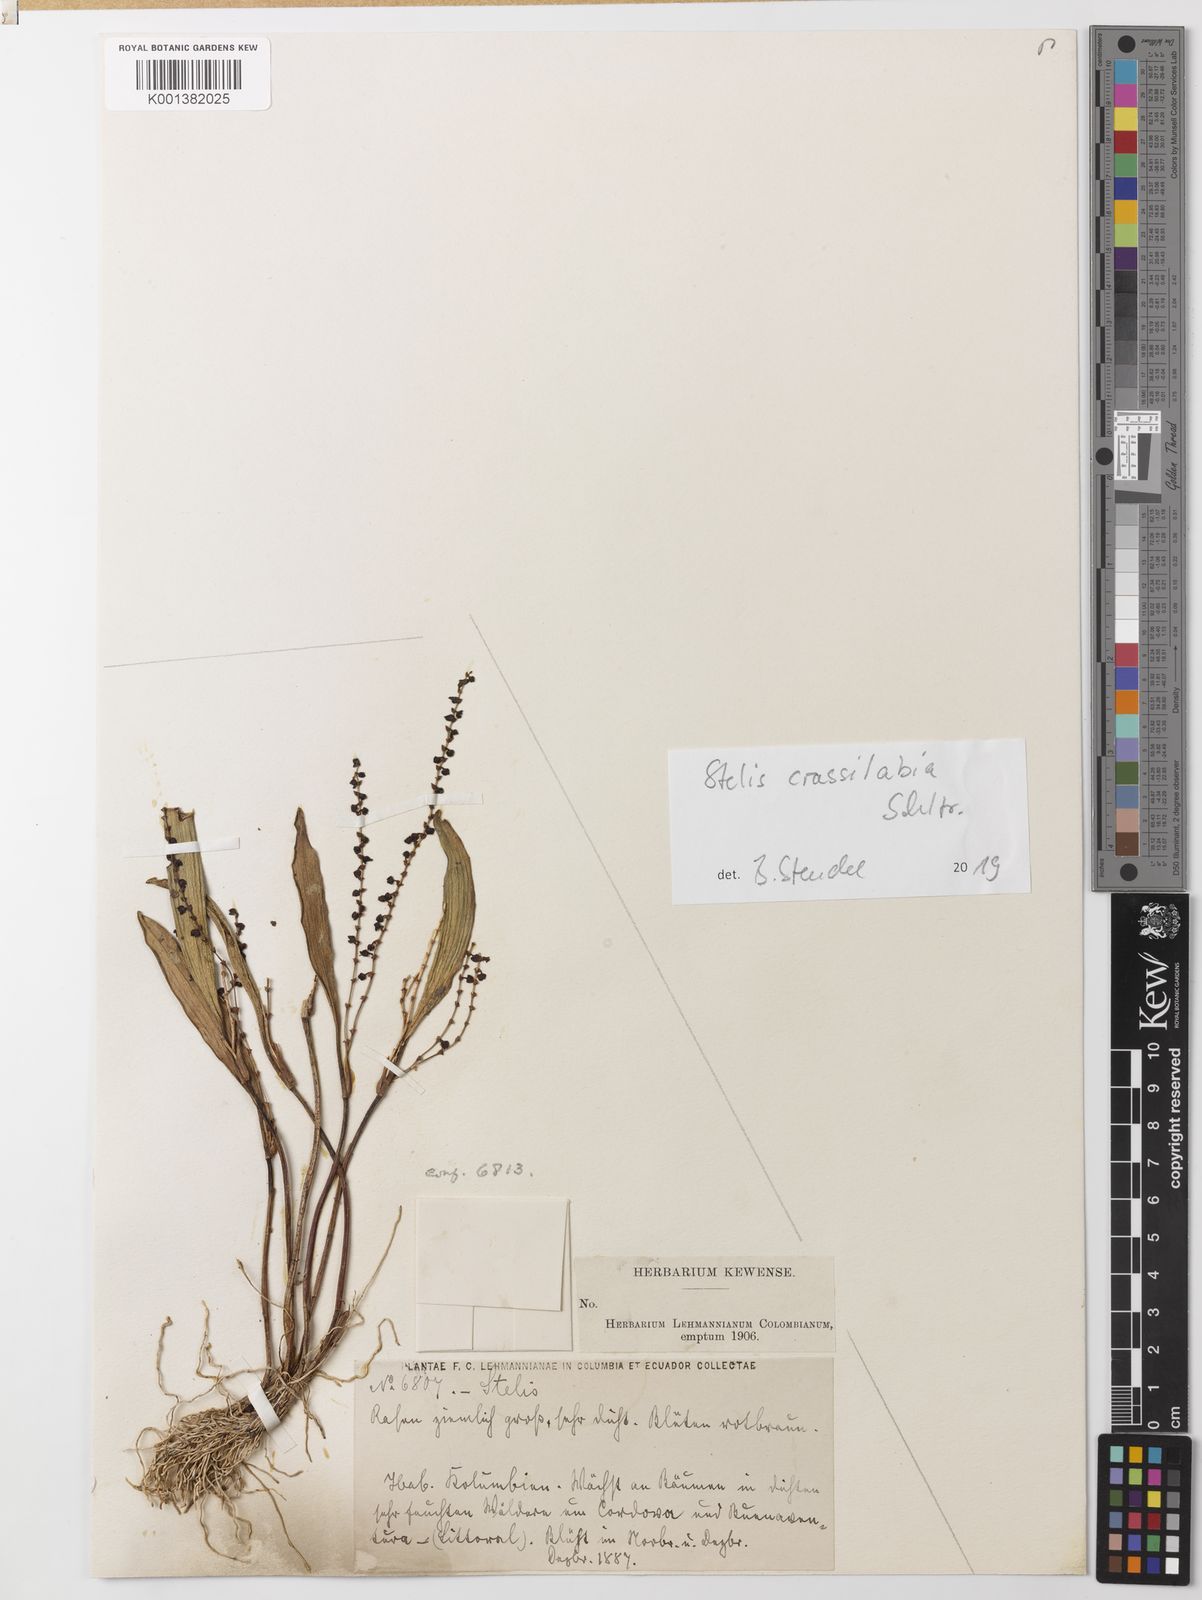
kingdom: Plantae
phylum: Tracheophyta
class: Liliopsida
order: Asparagales
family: Orchidaceae
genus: Stelis
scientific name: Stelis crassilabia
